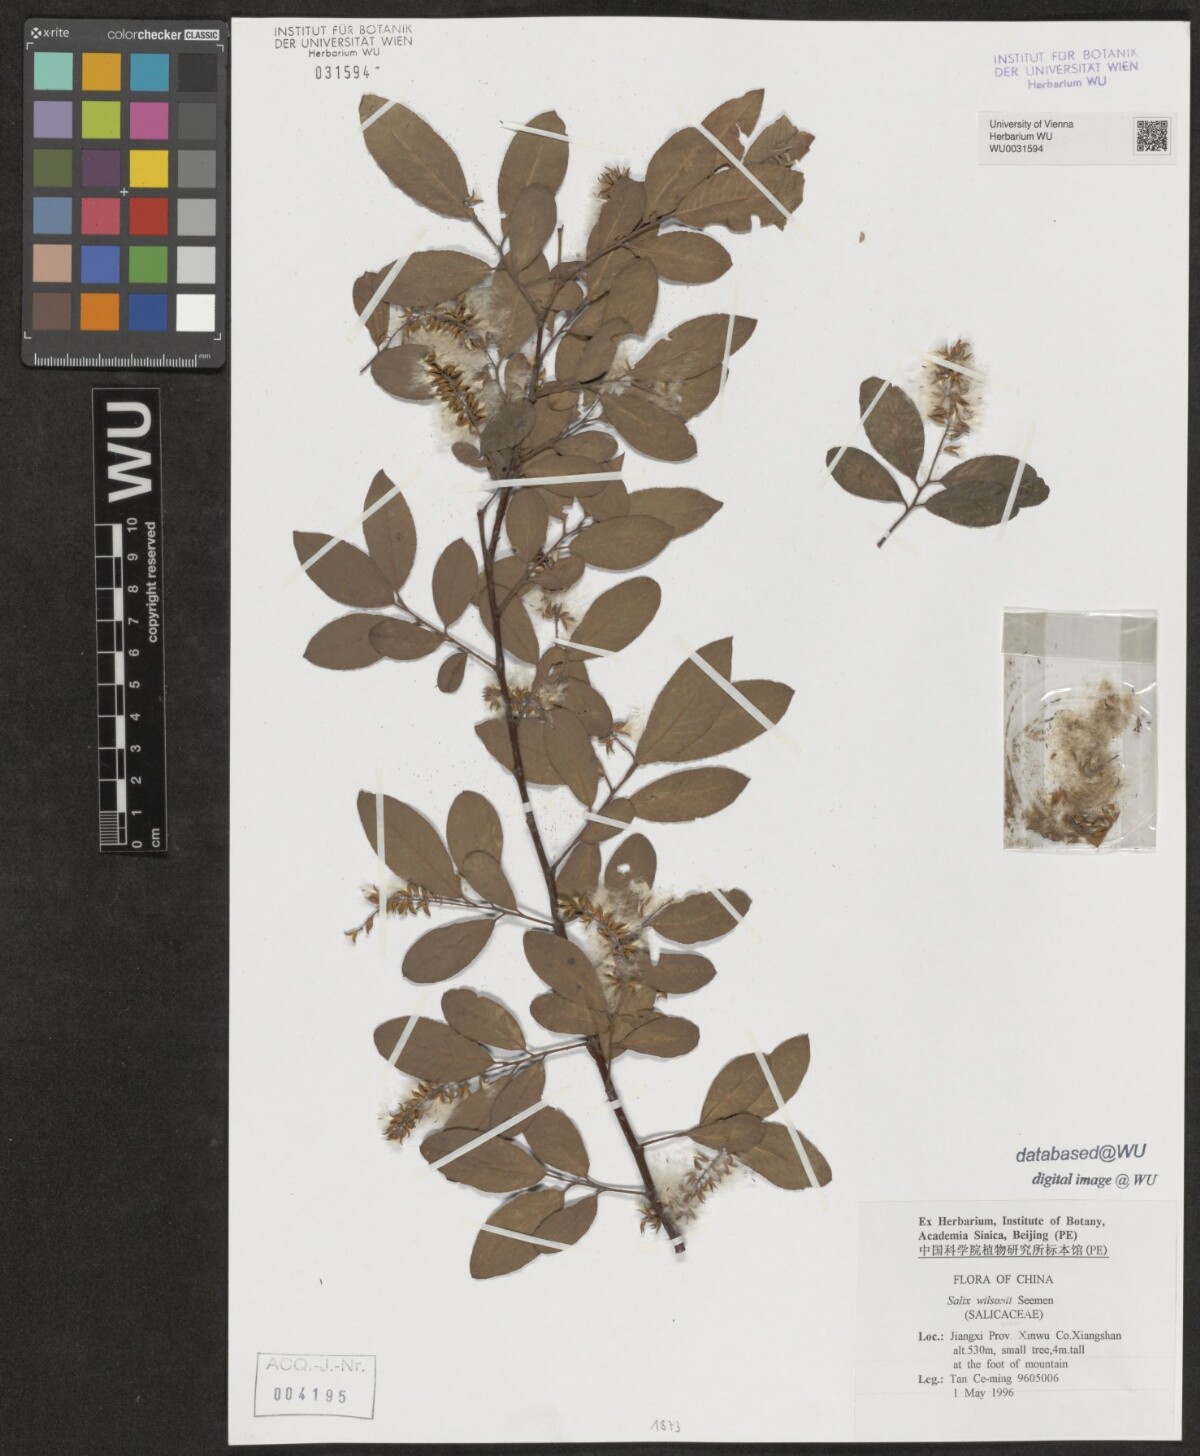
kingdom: Plantae
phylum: Tracheophyta
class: Magnoliopsida
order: Malpighiales
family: Salicaceae
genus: Salix
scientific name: Salix wilsonii
